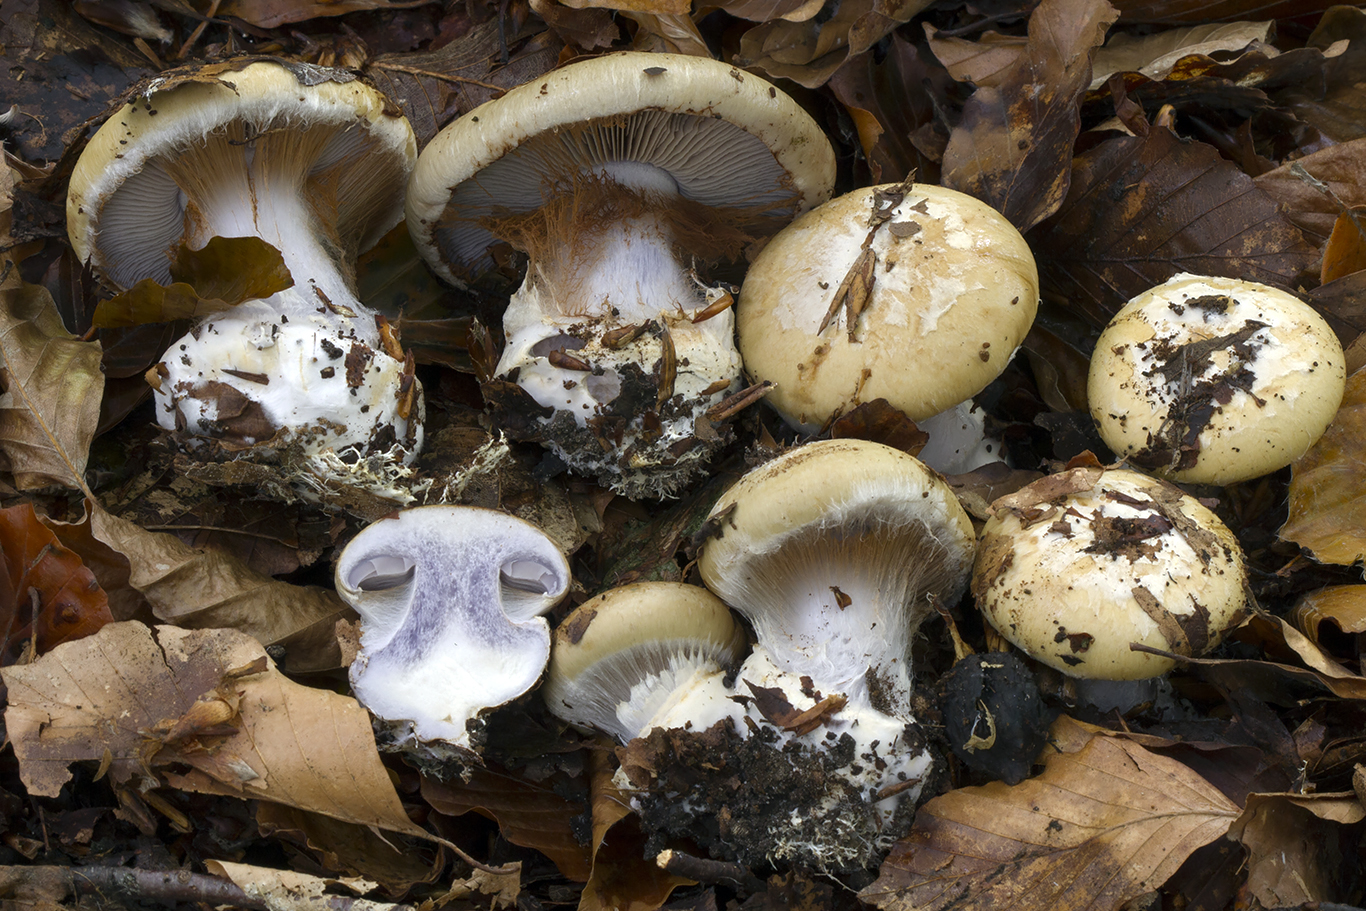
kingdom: Fungi
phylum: Basidiomycota
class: Agaricomycetes
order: Agaricales
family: Cortinariaceae
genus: Cortinarius
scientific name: Cortinarius anserinus
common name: bøge-slørhat
